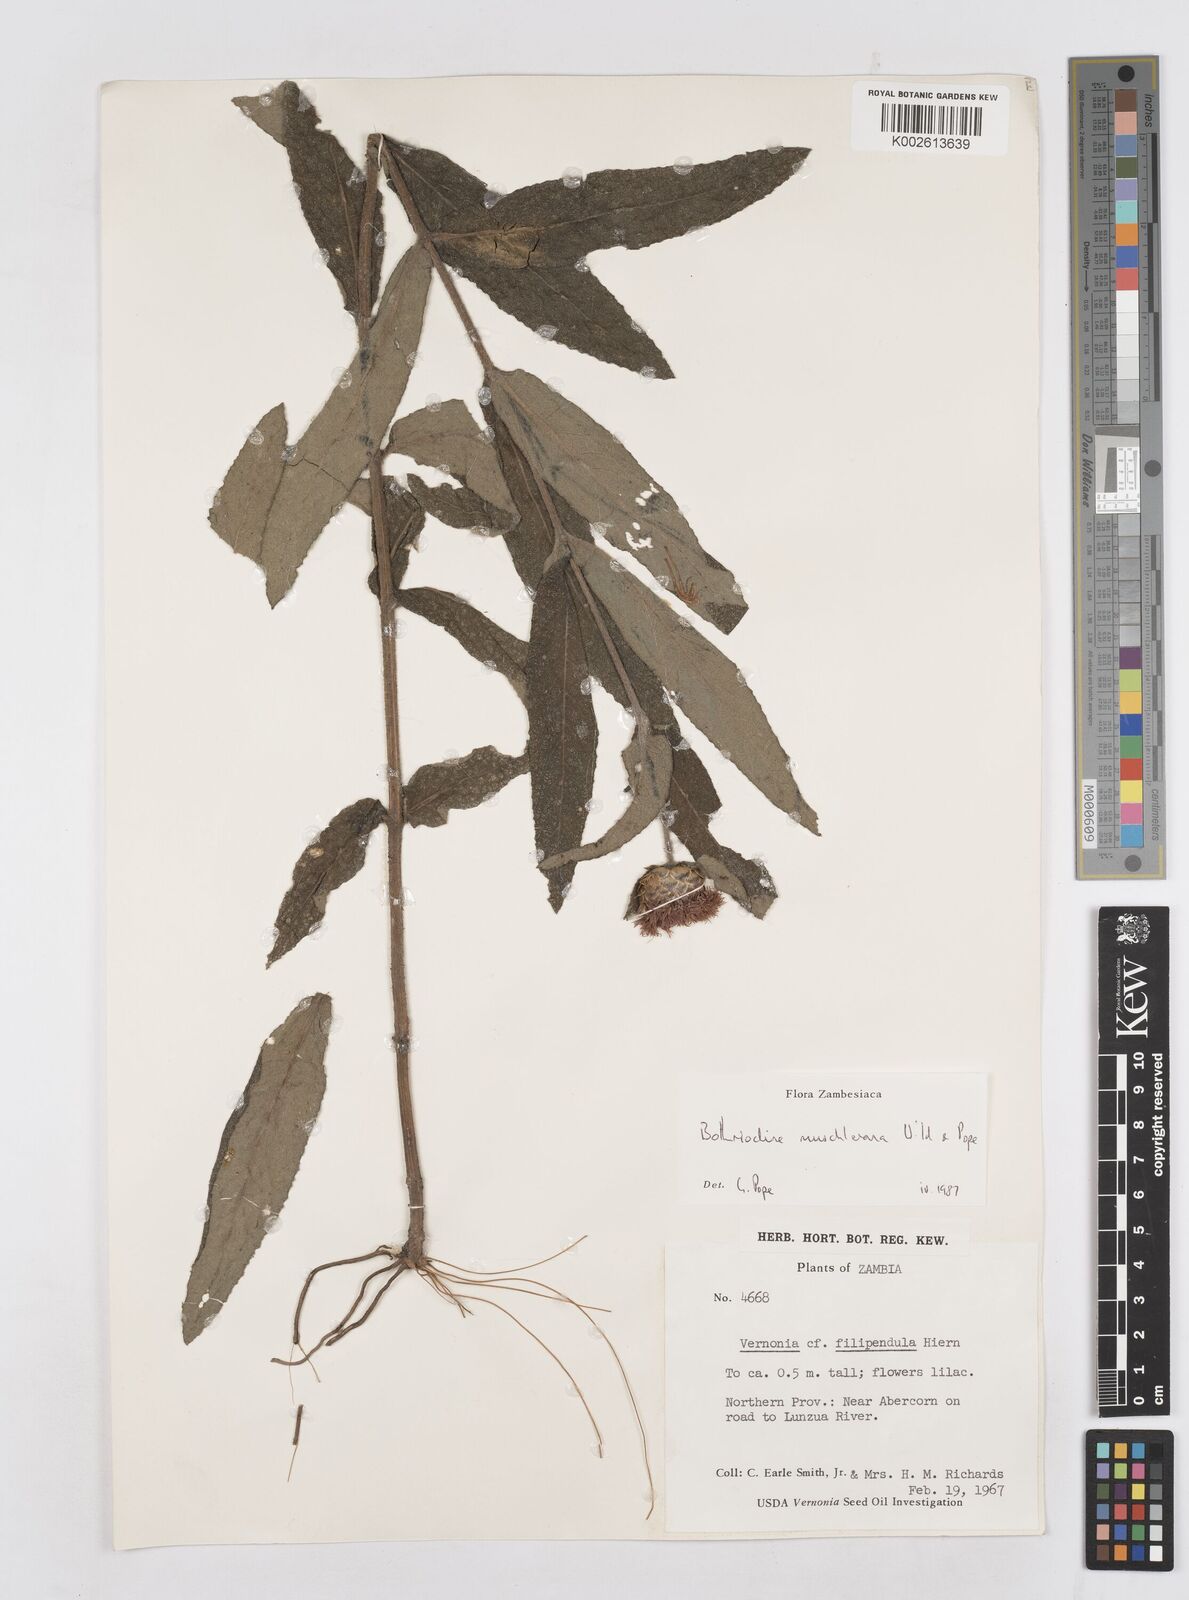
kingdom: Plantae
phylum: Tracheophyta
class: Magnoliopsida
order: Asterales
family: Asteraceae
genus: Bothriocline
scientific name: Bothriocline muschleriana
